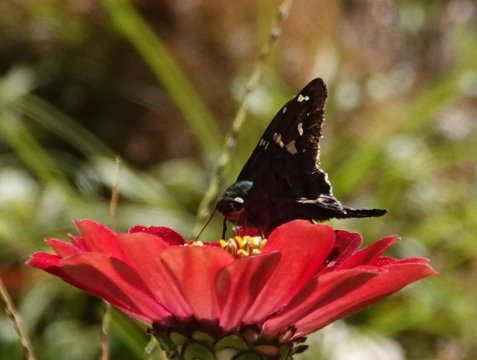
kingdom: Animalia
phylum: Arthropoda
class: Insecta
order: Lepidoptera
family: Hesperiidae
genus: Urbanus
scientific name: Urbanus proteus
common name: Long-tailed Skipper
